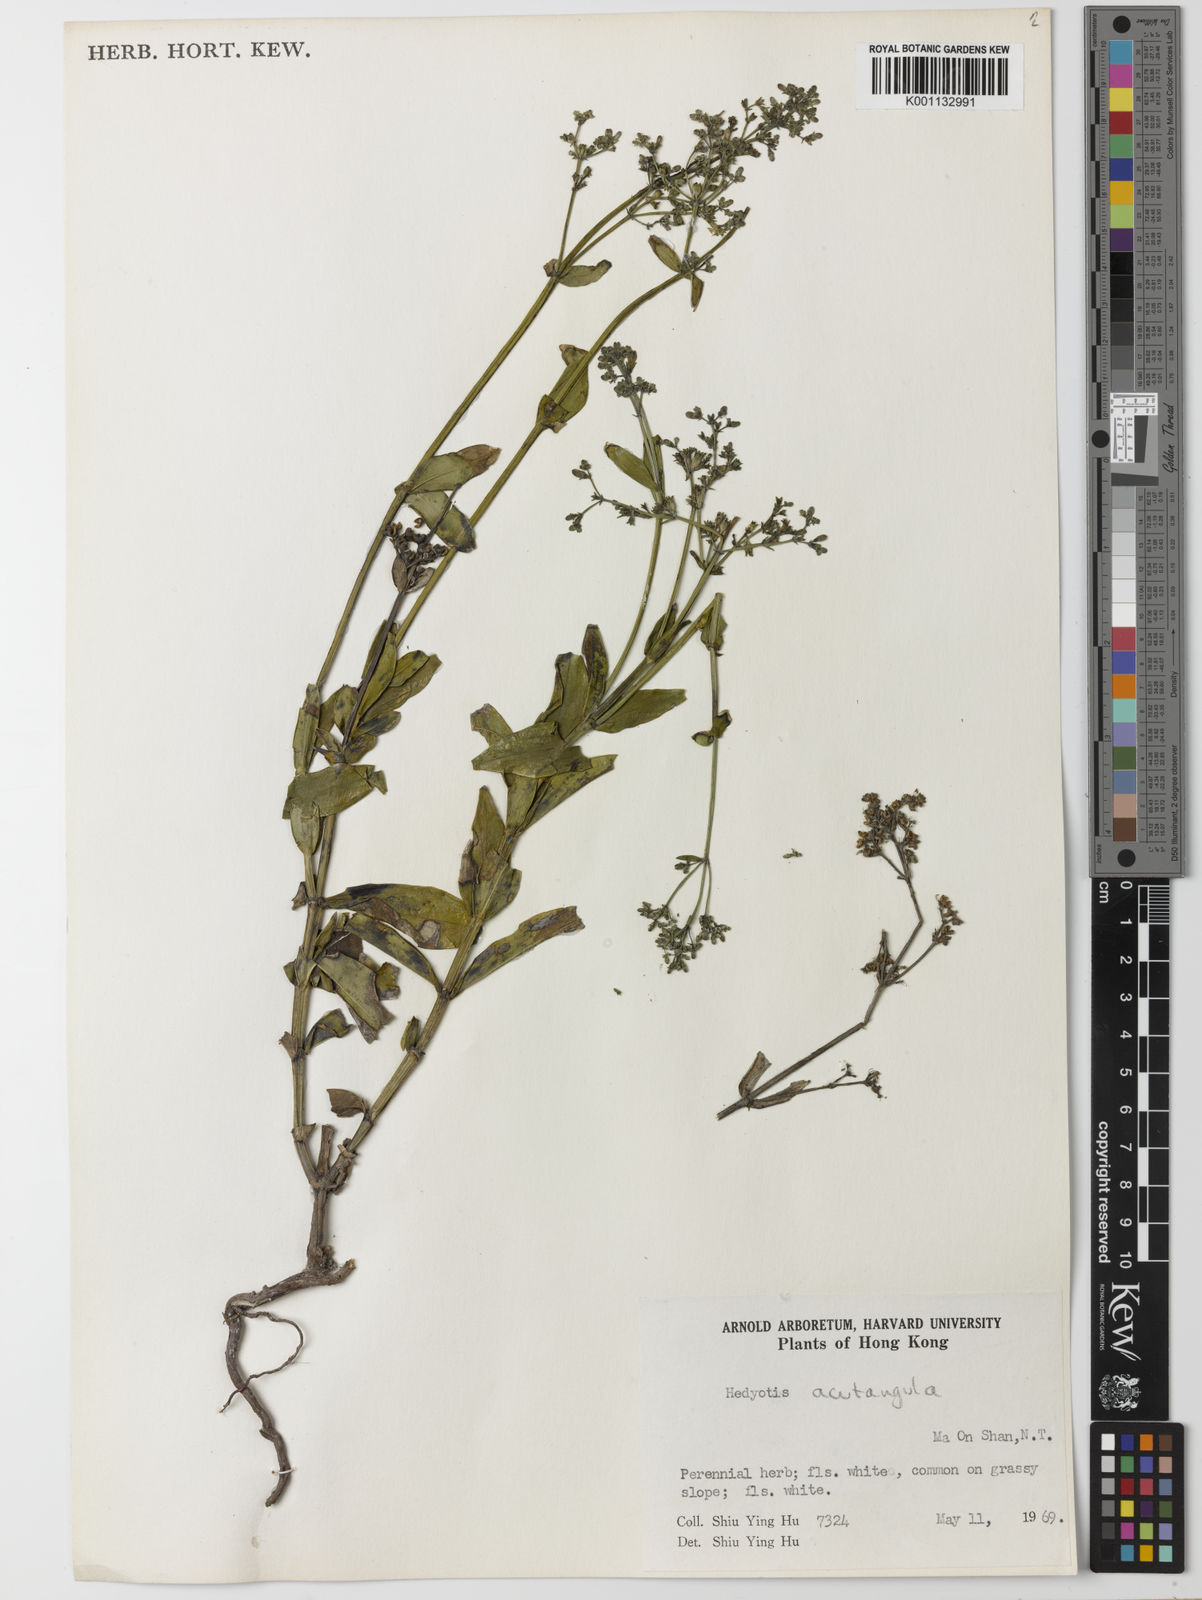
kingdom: Plantae
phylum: Tracheophyta
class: Magnoliopsida
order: Gentianales
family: Rubiaceae
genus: Hedyotis
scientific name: Hedyotis acutangula
